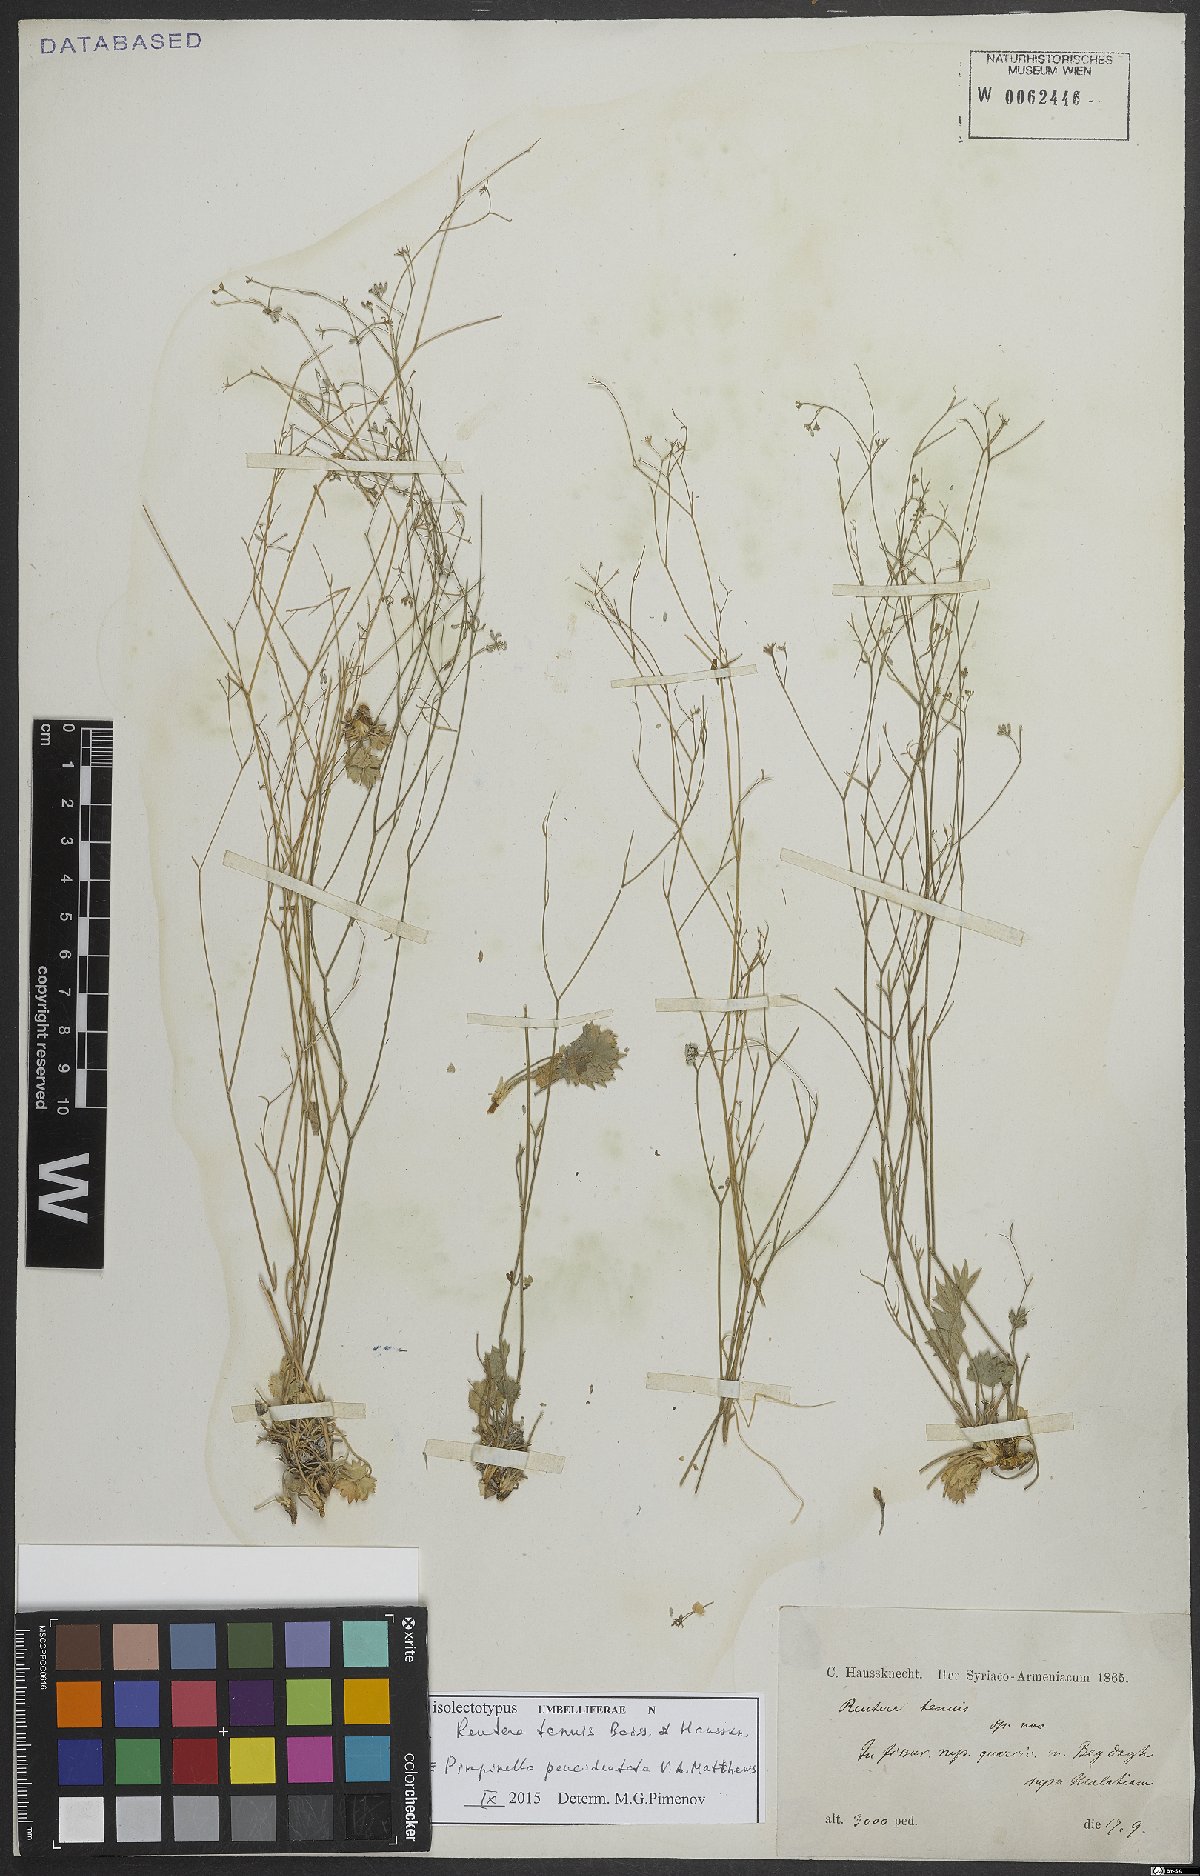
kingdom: Plantae
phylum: Tracheophyta
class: Magnoliopsida
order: Apiales
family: Apiaceae
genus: Pimpinella
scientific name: Pimpinella paucidentata
